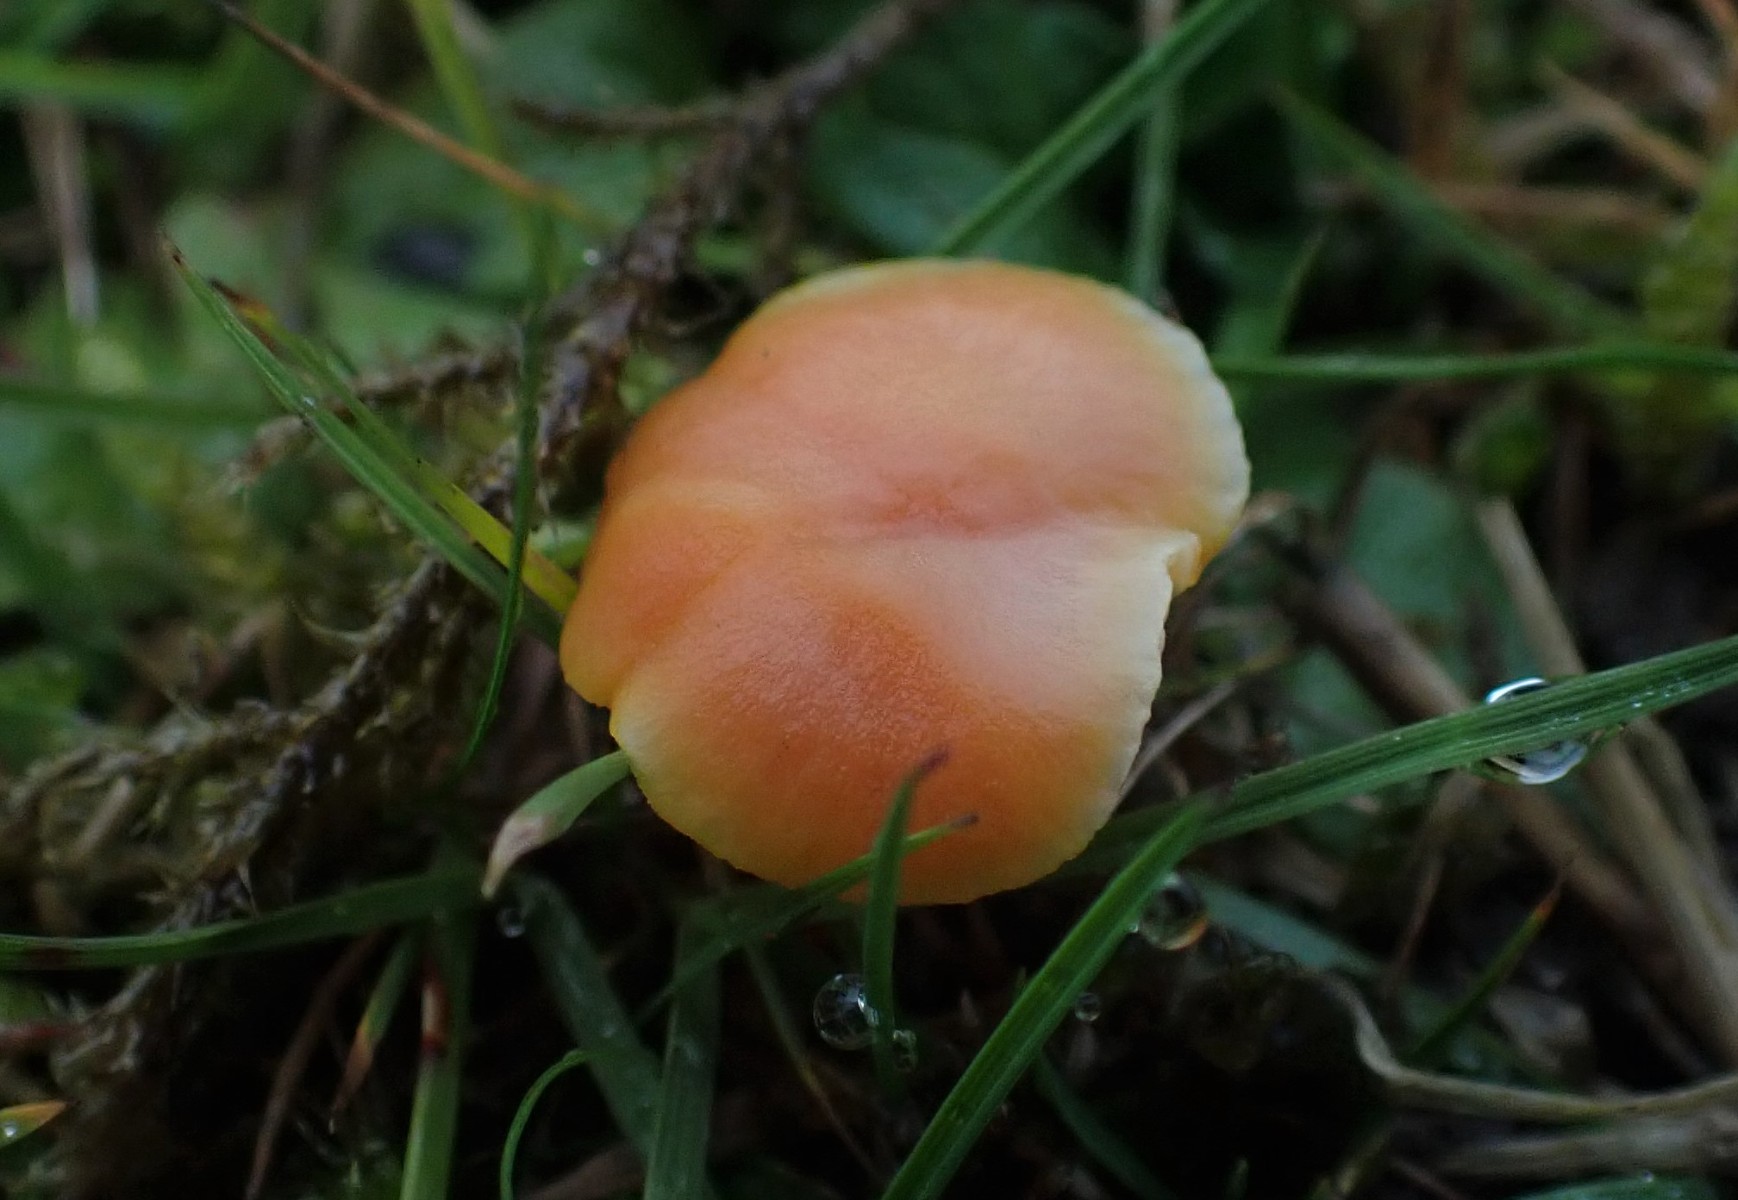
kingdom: Fungi
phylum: Basidiomycota
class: Agaricomycetes
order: Agaricales
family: Hygrophoraceae
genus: Hygrocybe
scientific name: Hygrocybe reidii
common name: honning-vokshat
